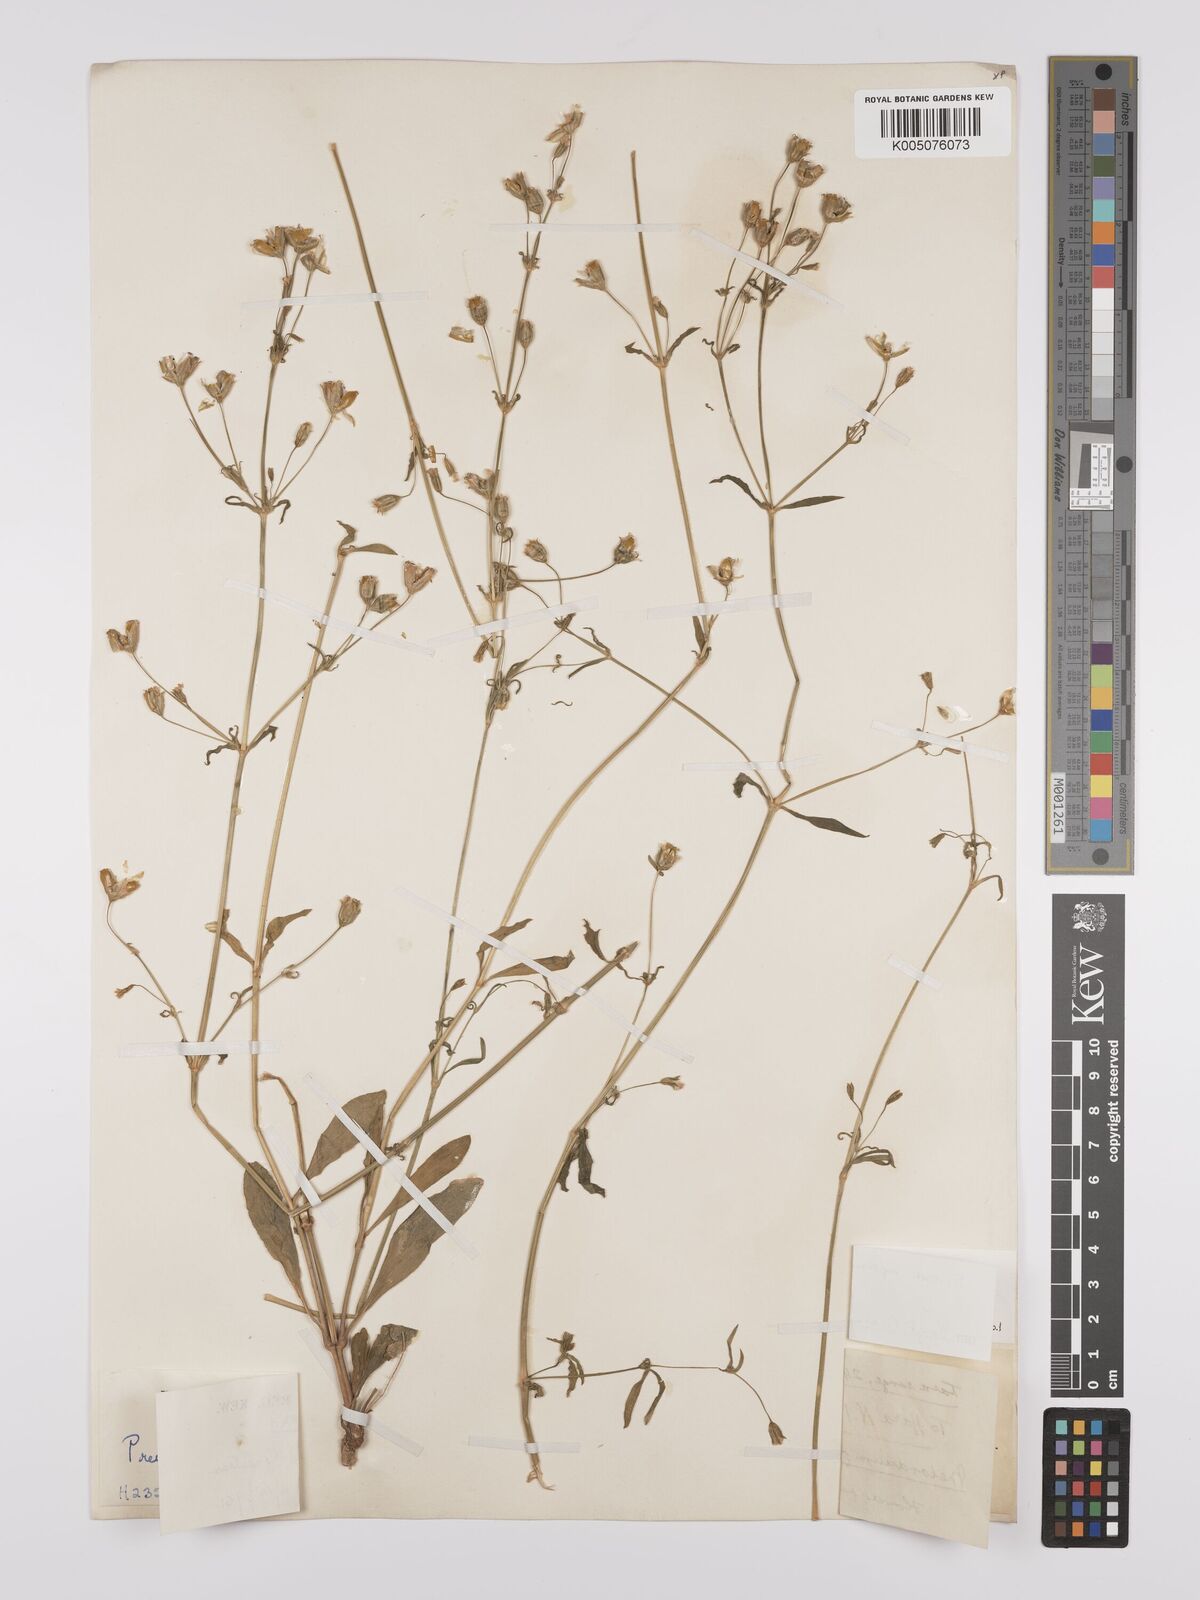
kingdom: Plantae
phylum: Tracheophyta
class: Magnoliopsida
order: Caryophyllales
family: Caryophyllaceae
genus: Silene
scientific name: Silene aprica
